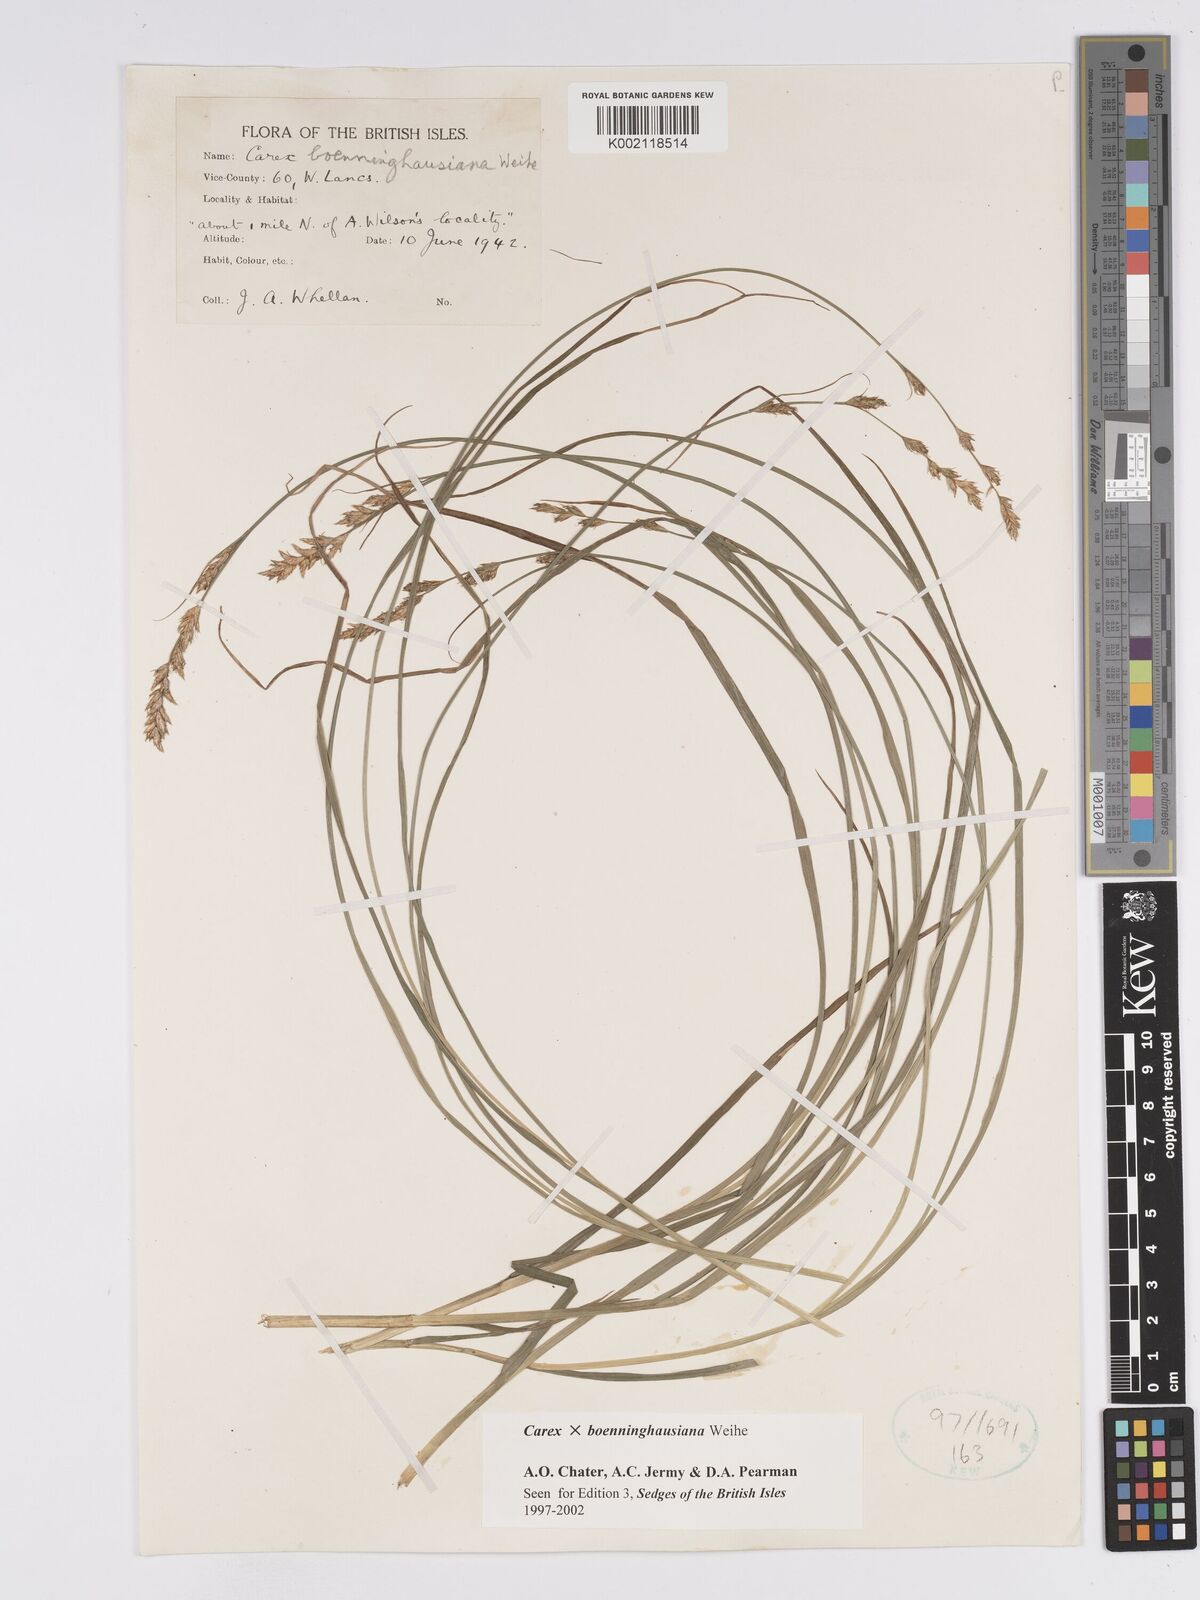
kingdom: Plantae
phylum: Tracheophyta
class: Liliopsida
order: Poales
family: Cyperaceae
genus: Carex
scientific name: Carex boenninghausiana
